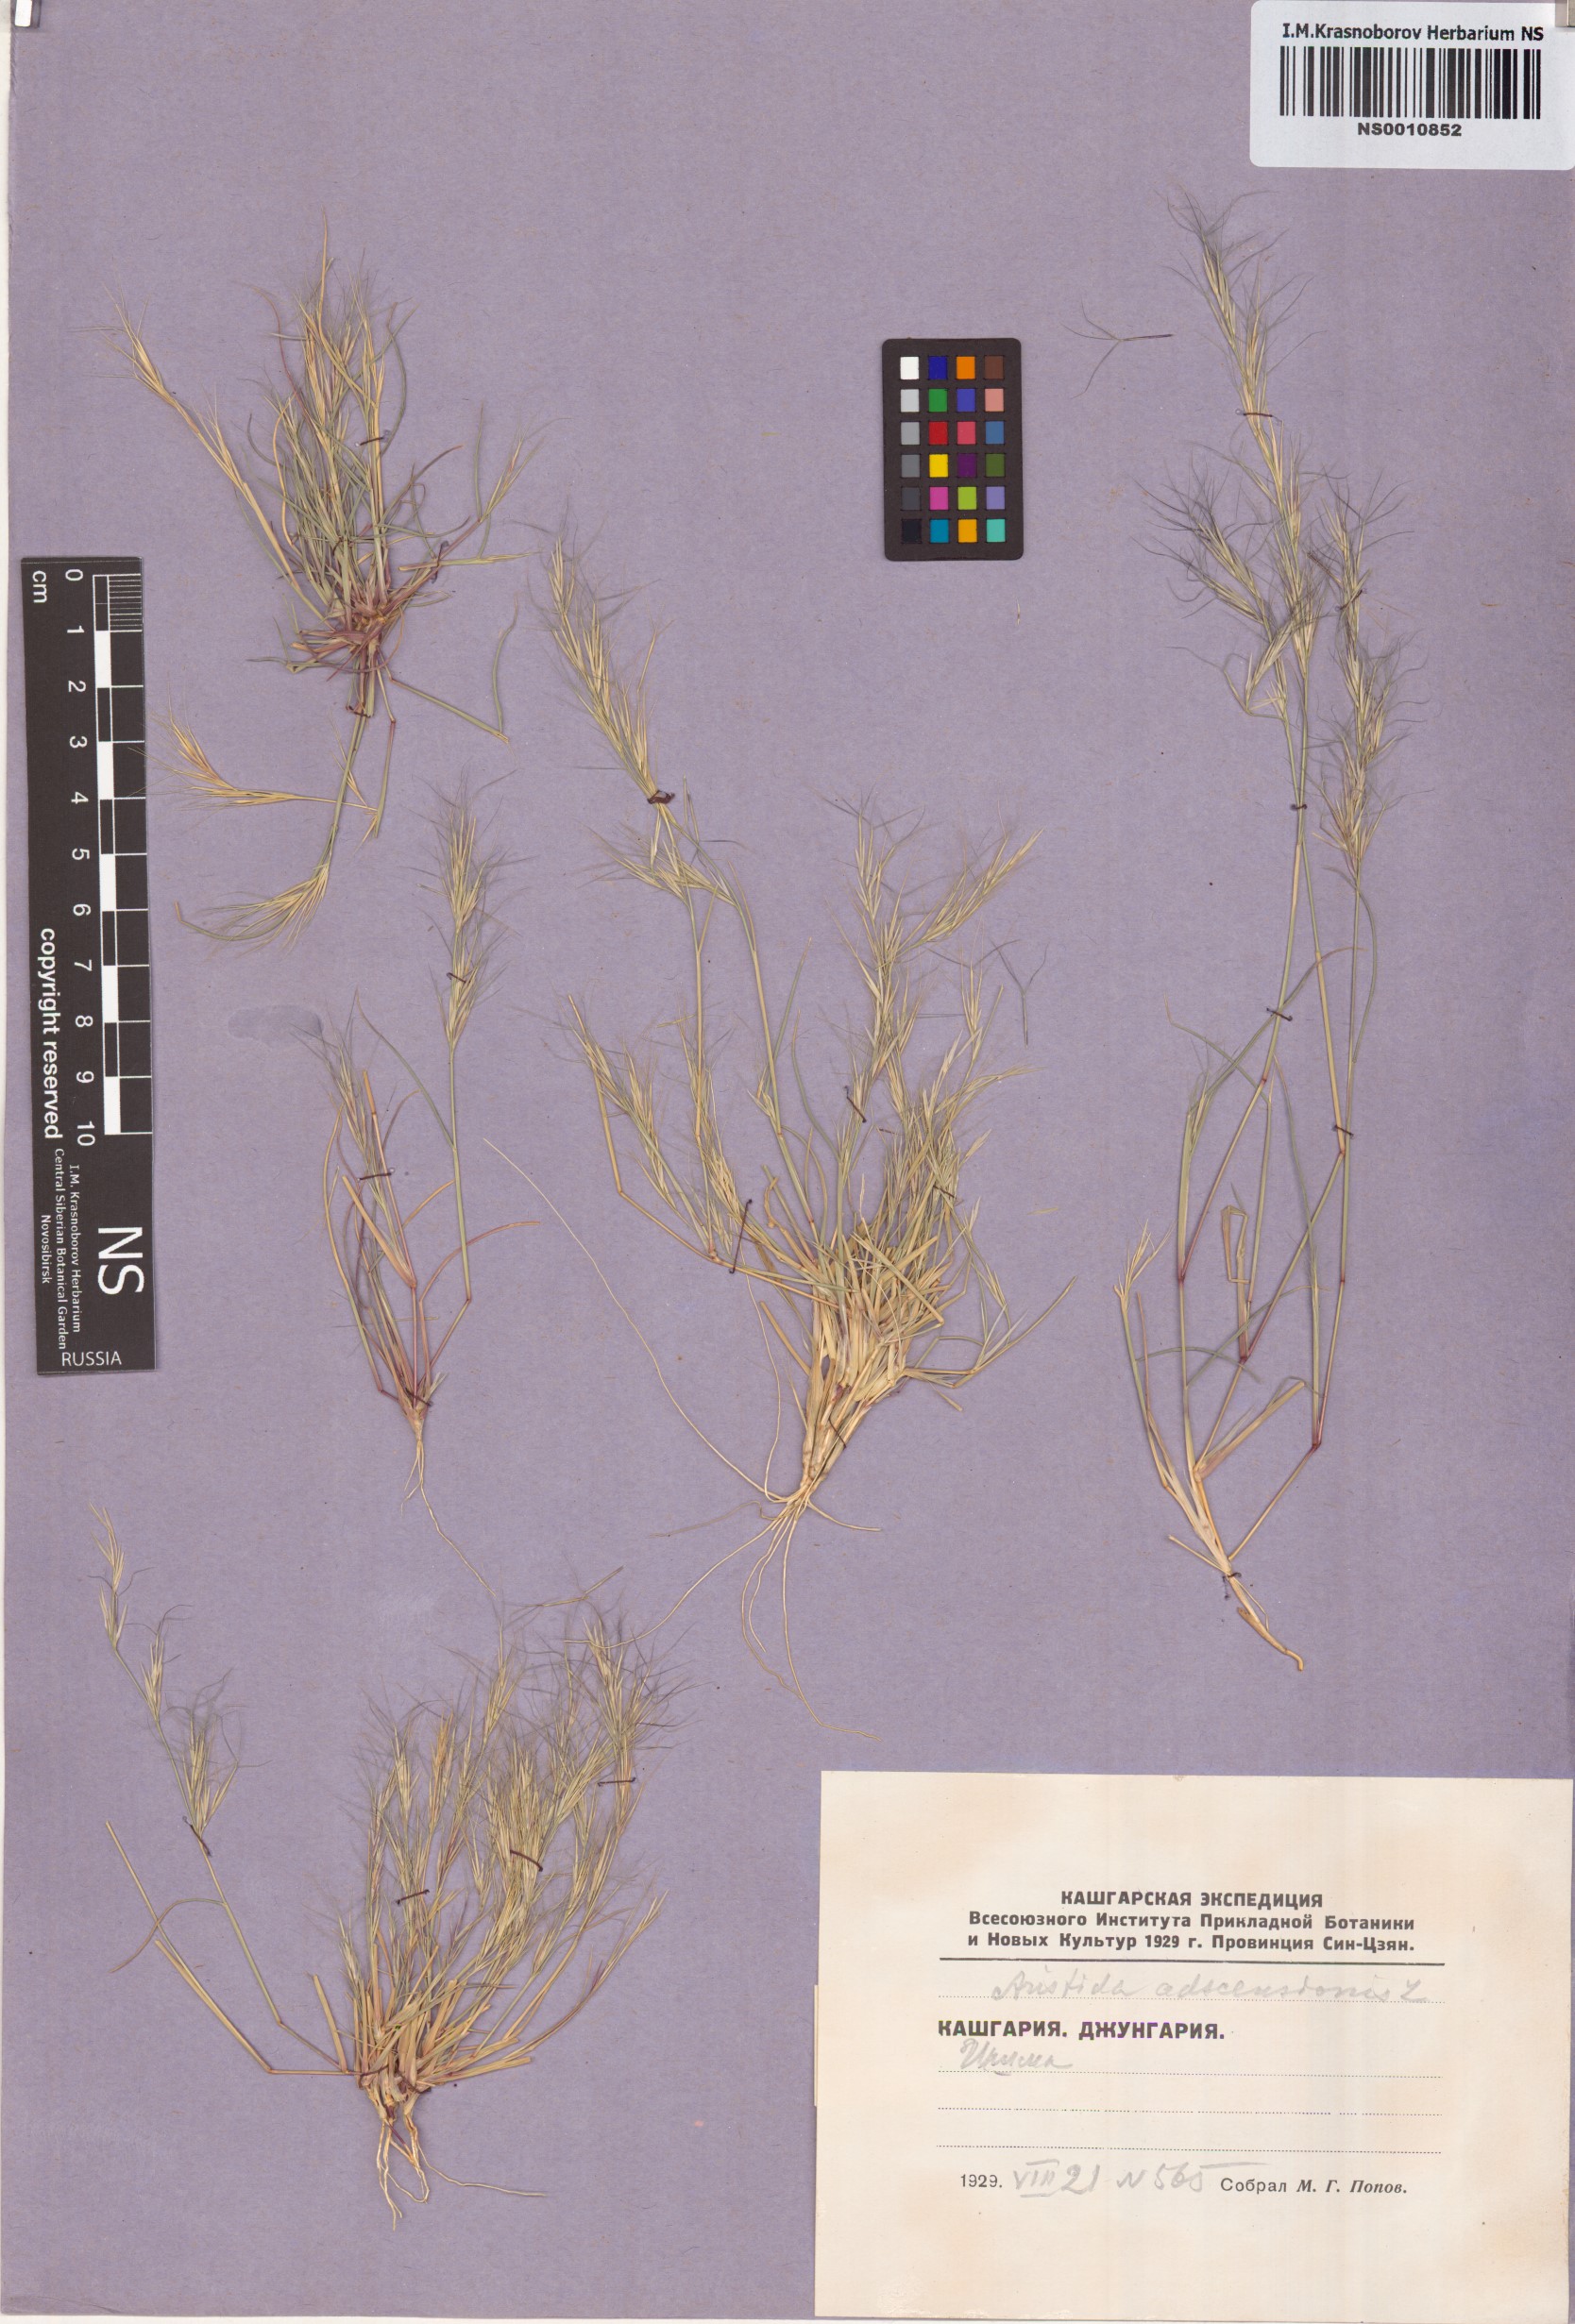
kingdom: Plantae
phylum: Tracheophyta
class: Liliopsida
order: Poales
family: Poaceae
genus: Aristida
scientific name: Aristida adscensionis
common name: Sixweeks threeawn
